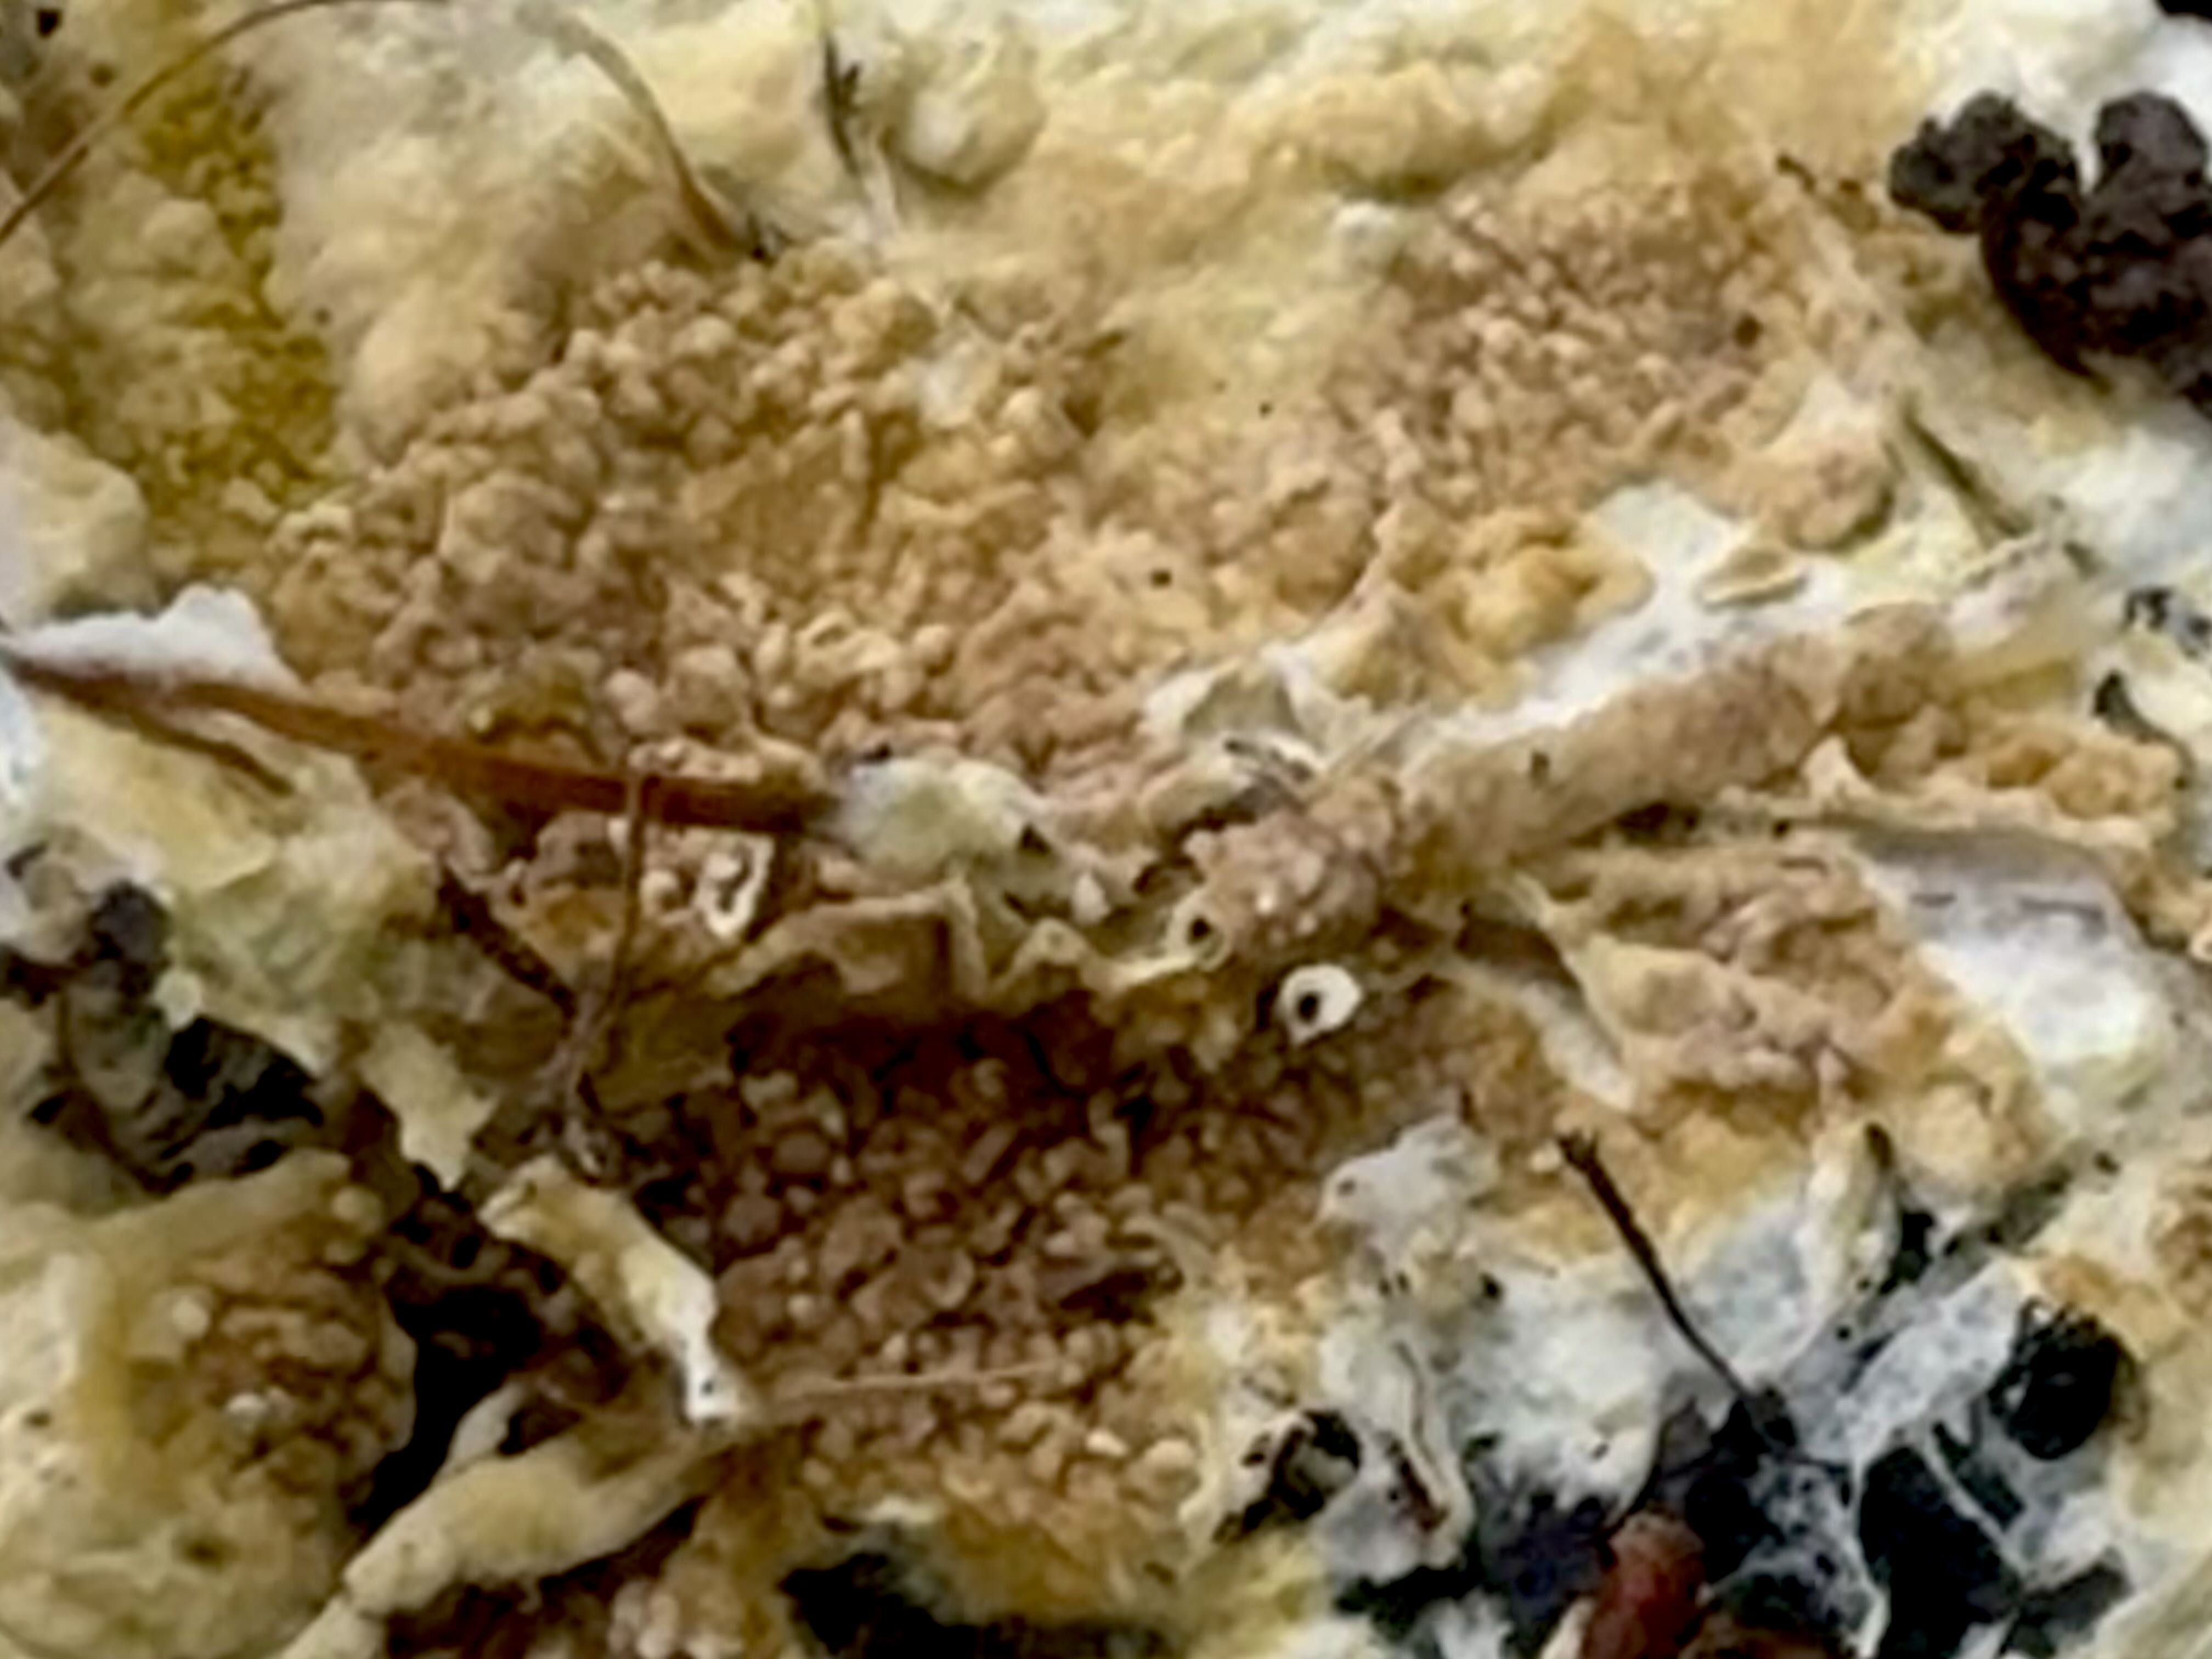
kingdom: Fungi
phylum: Basidiomycota
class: Agaricomycetes
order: Boletales
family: Coniophoraceae
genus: Coniophora
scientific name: Coniophora puteana
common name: gul tømmersvamp
